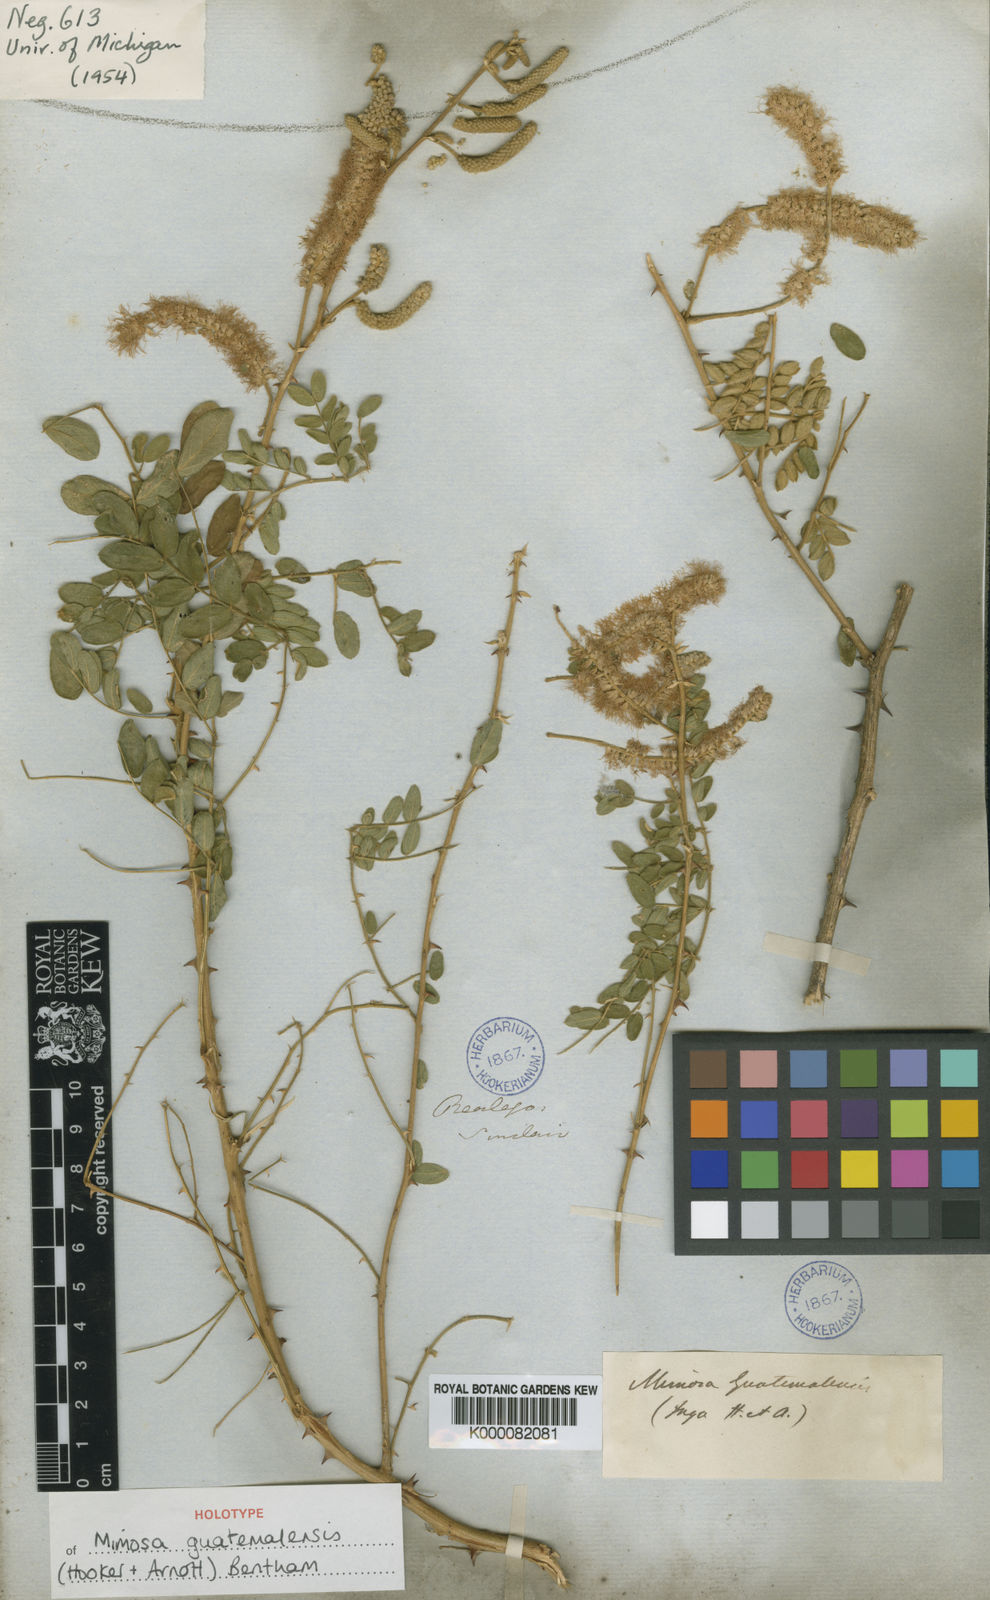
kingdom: Plantae
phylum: Tracheophyta
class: Magnoliopsida
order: Fabales
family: Fabaceae
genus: Mimosa
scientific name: Mimosa guatemalensis
